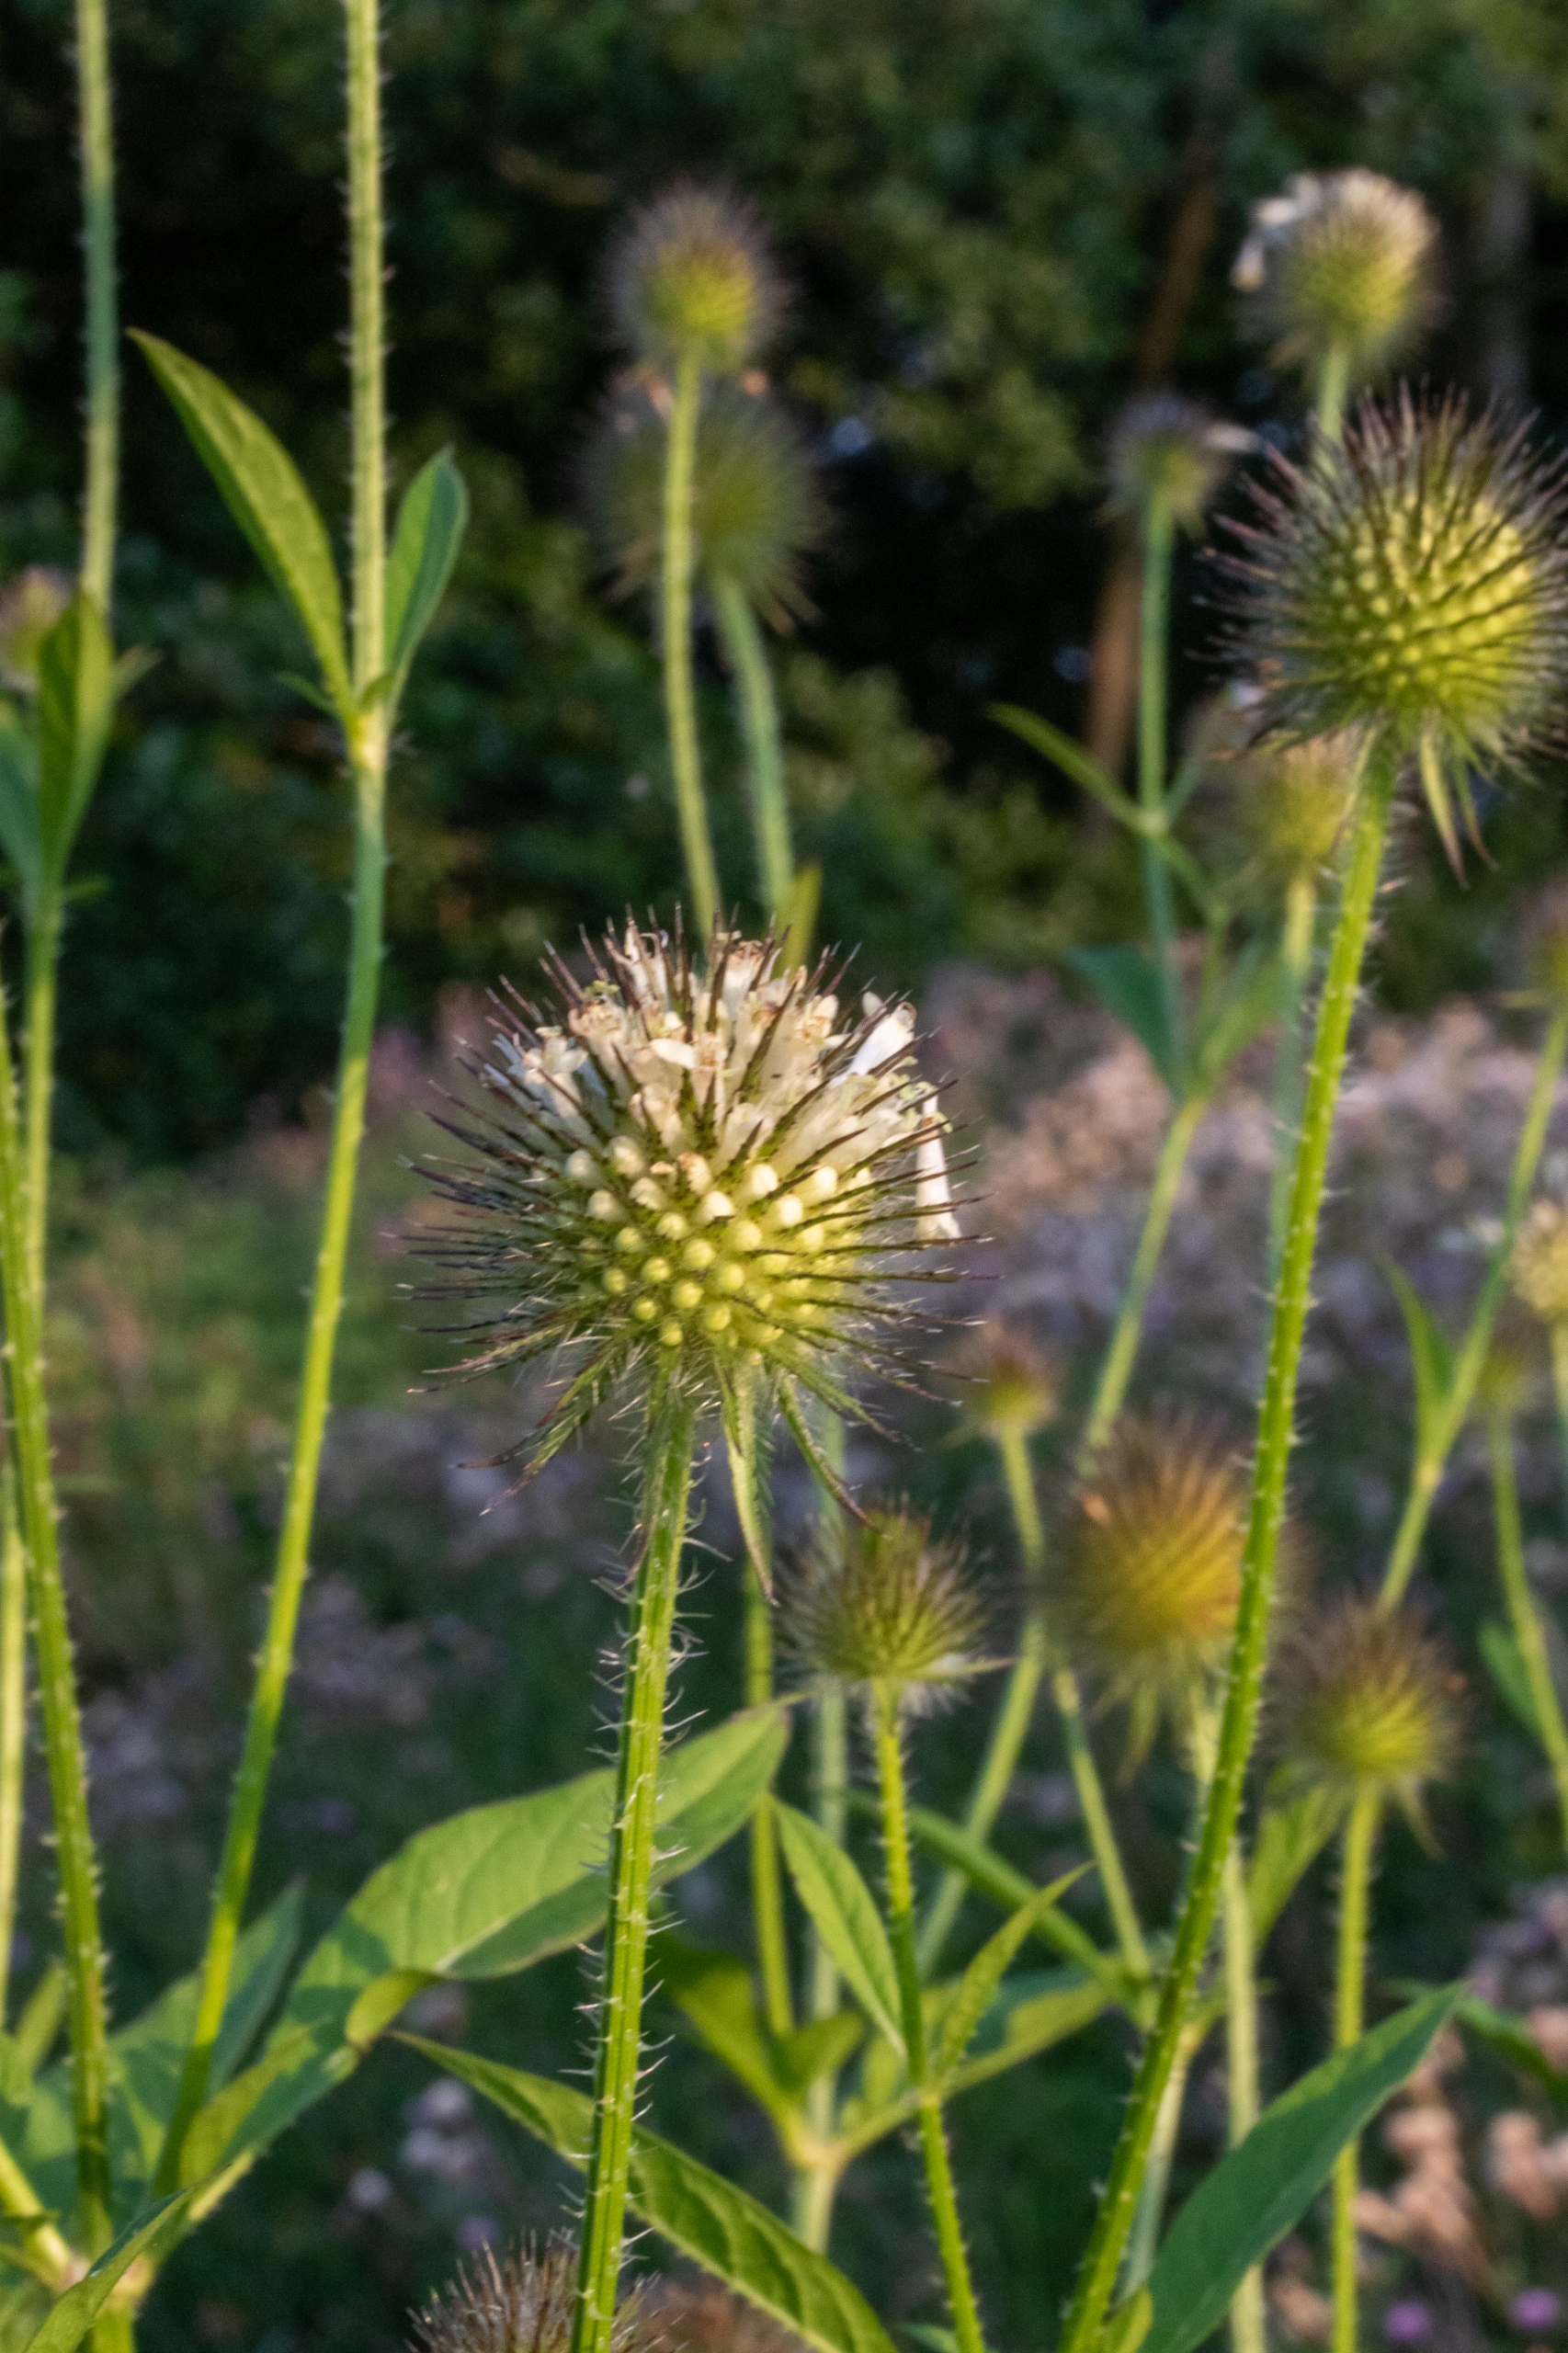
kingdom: Plantae
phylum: Tracheophyta
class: Magnoliopsida
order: Dipsacales
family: Caprifoliaceae
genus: Dipsacus
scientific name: Dipsacus strigosus
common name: Pindsvin-kartebolle
